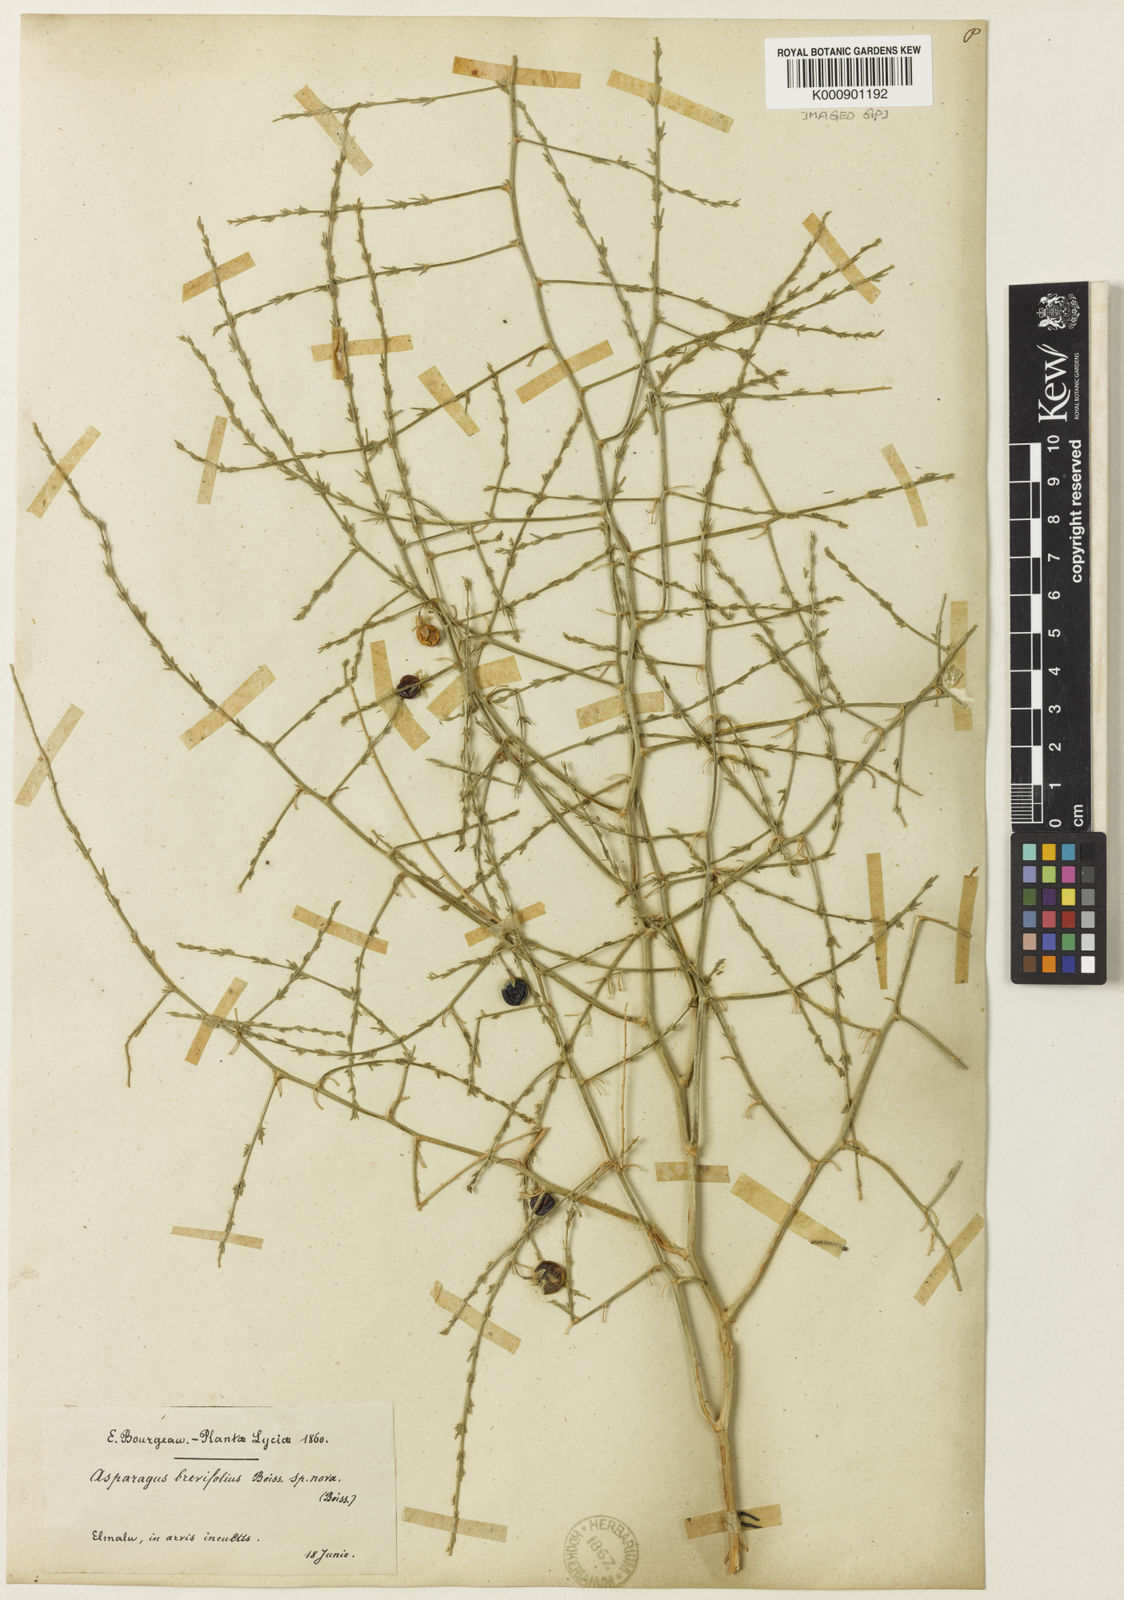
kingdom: Plantae
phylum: Tracheophyta
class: Liliopsida
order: Asparagales
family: Asparagaceae
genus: Asparagus
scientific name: Asparagus lycicus
